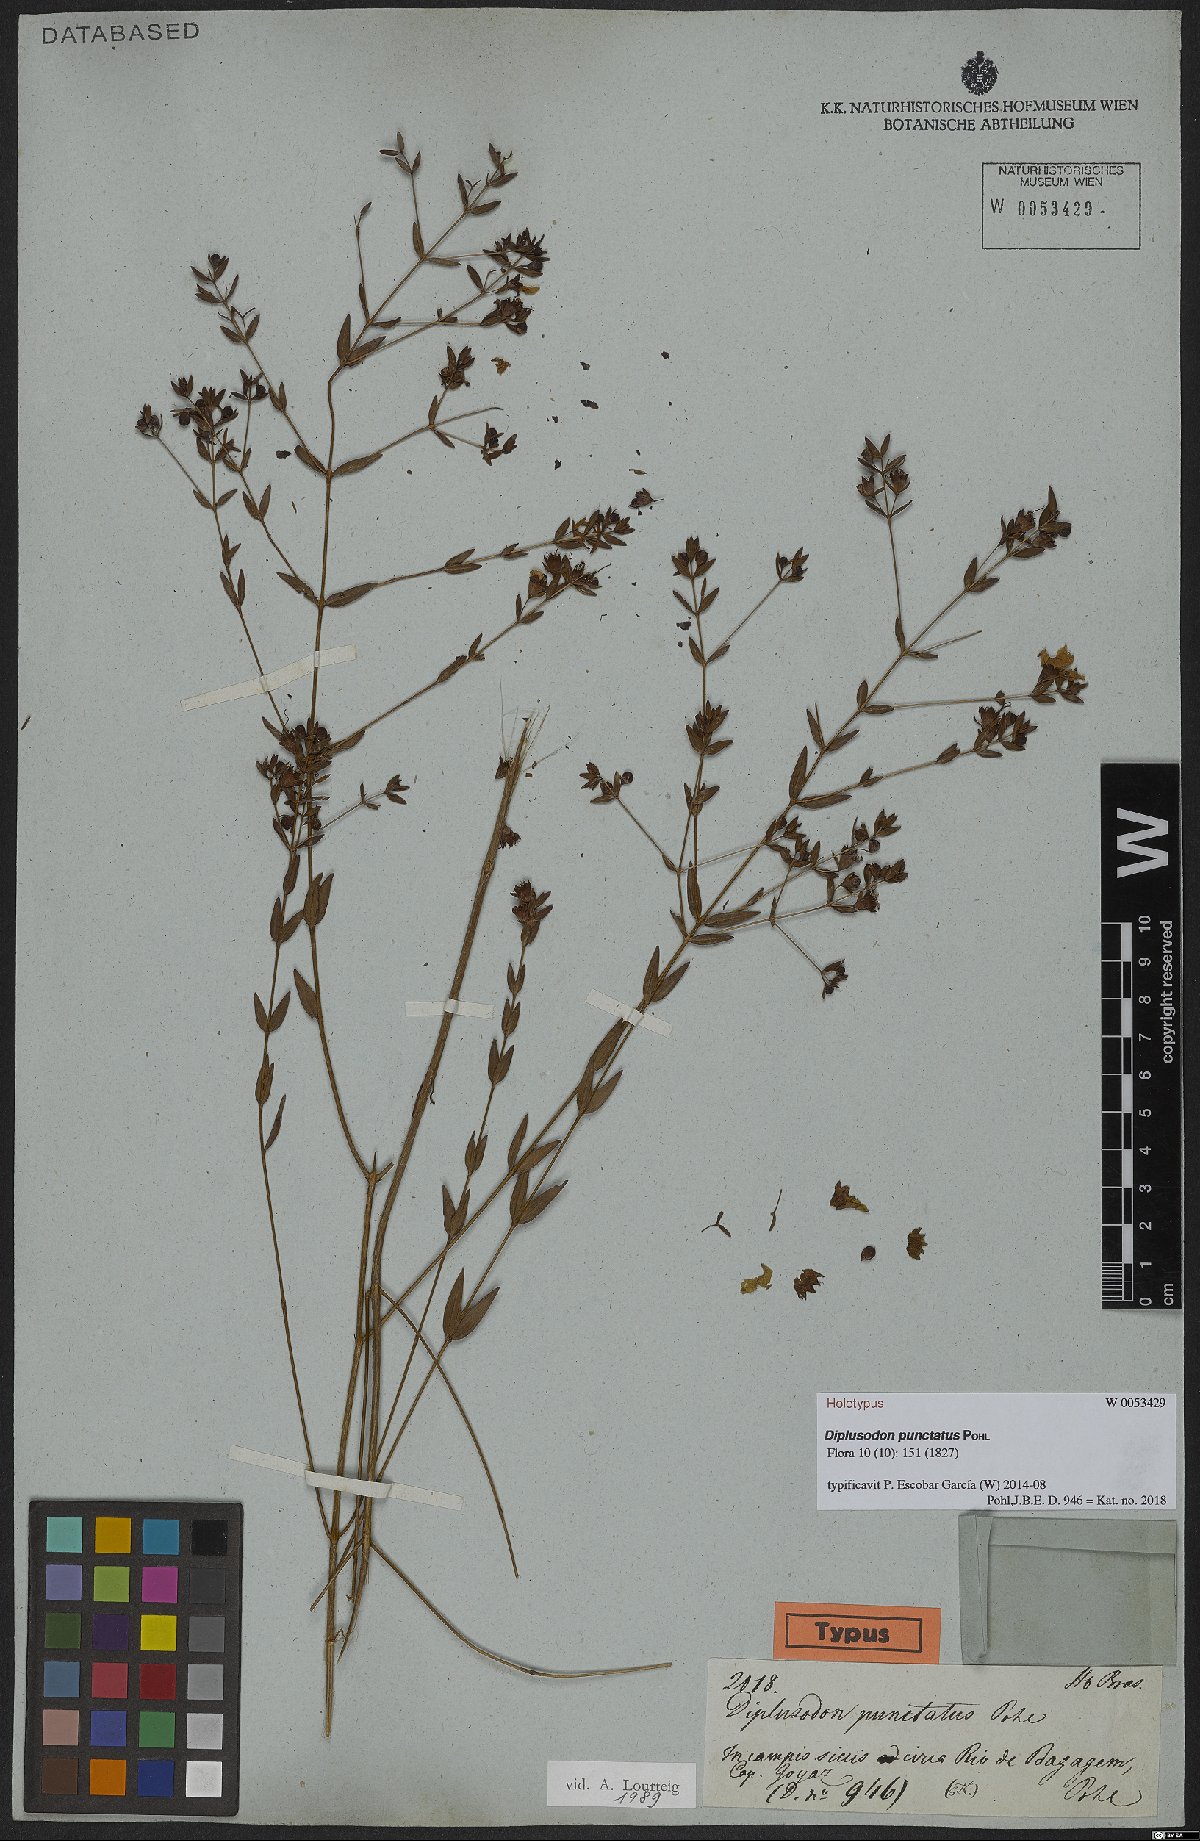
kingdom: Plantae
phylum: Tracheophyta
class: Magnoliopsida
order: Myrtales
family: Lythraceae
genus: Diplusodon
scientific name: Diplusodon punctatus
